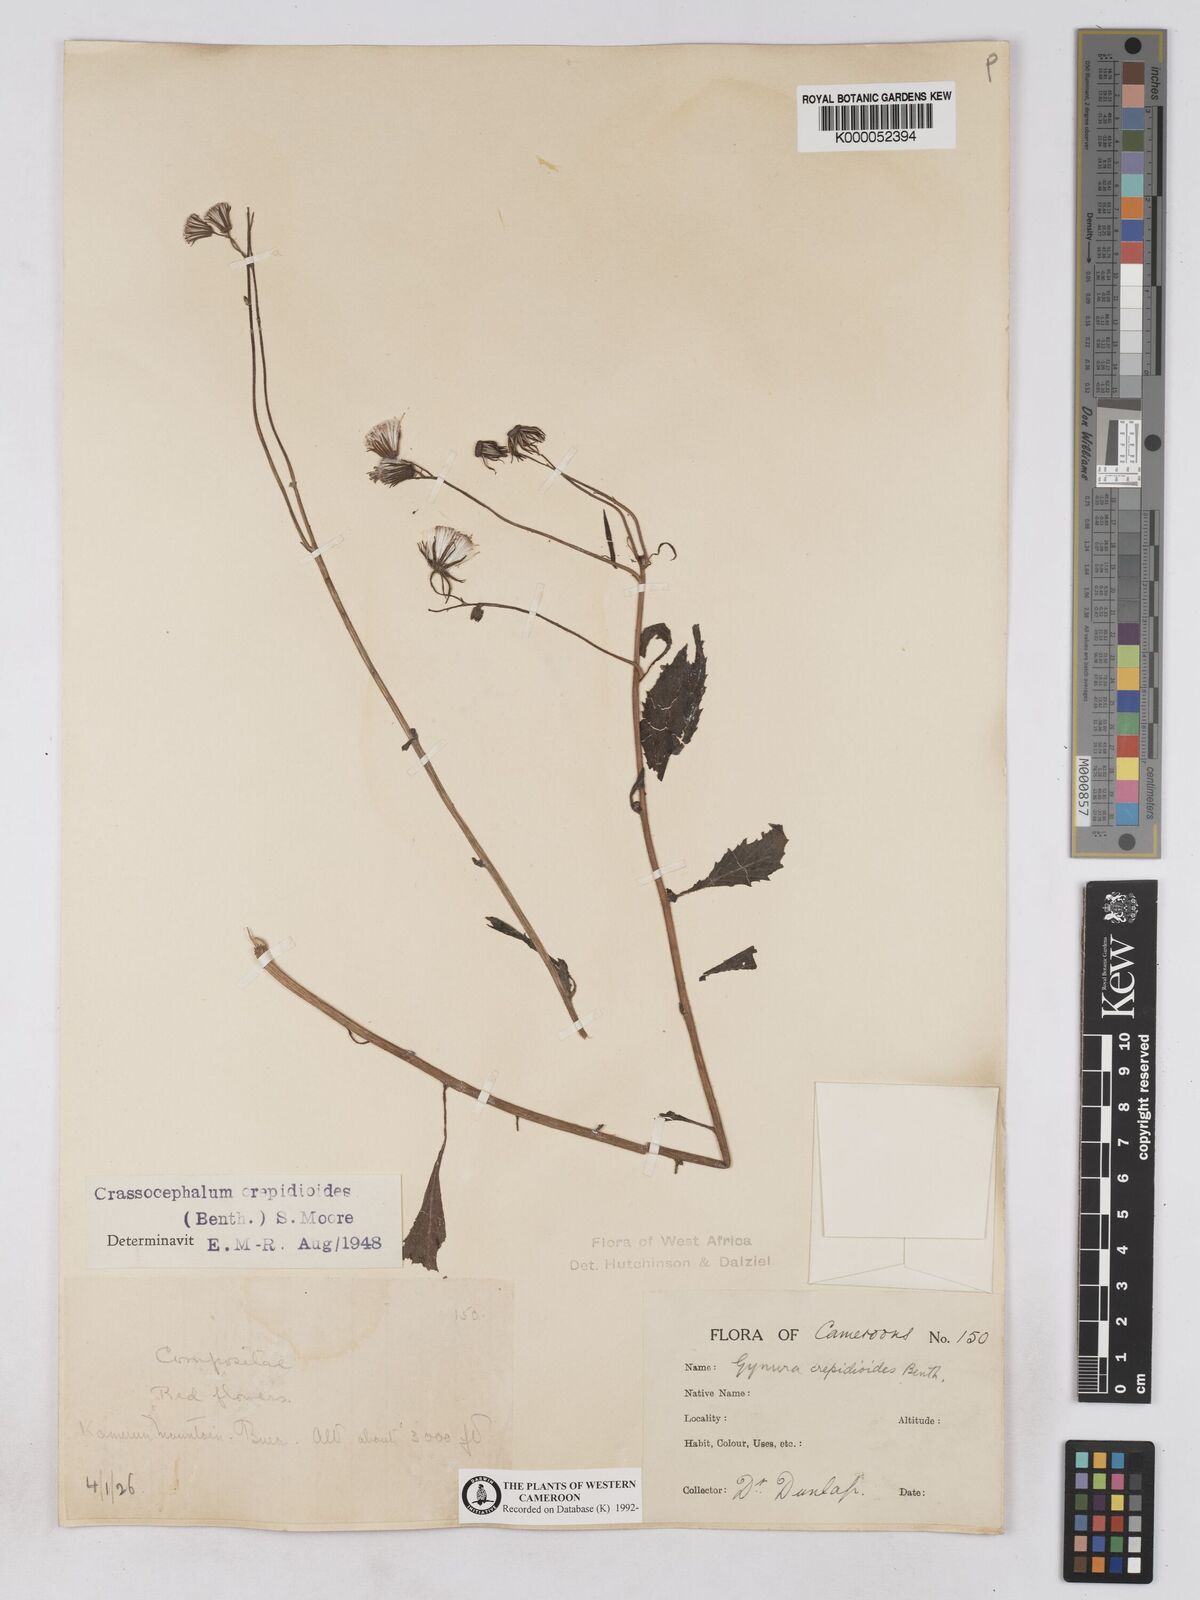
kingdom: Plantae
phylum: Tracheophyta
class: Magnoliopsida
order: Asterales
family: Asteraceae
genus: Crassocephalum
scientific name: Crassocephalum crepidioides
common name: Redflower ragleaf
